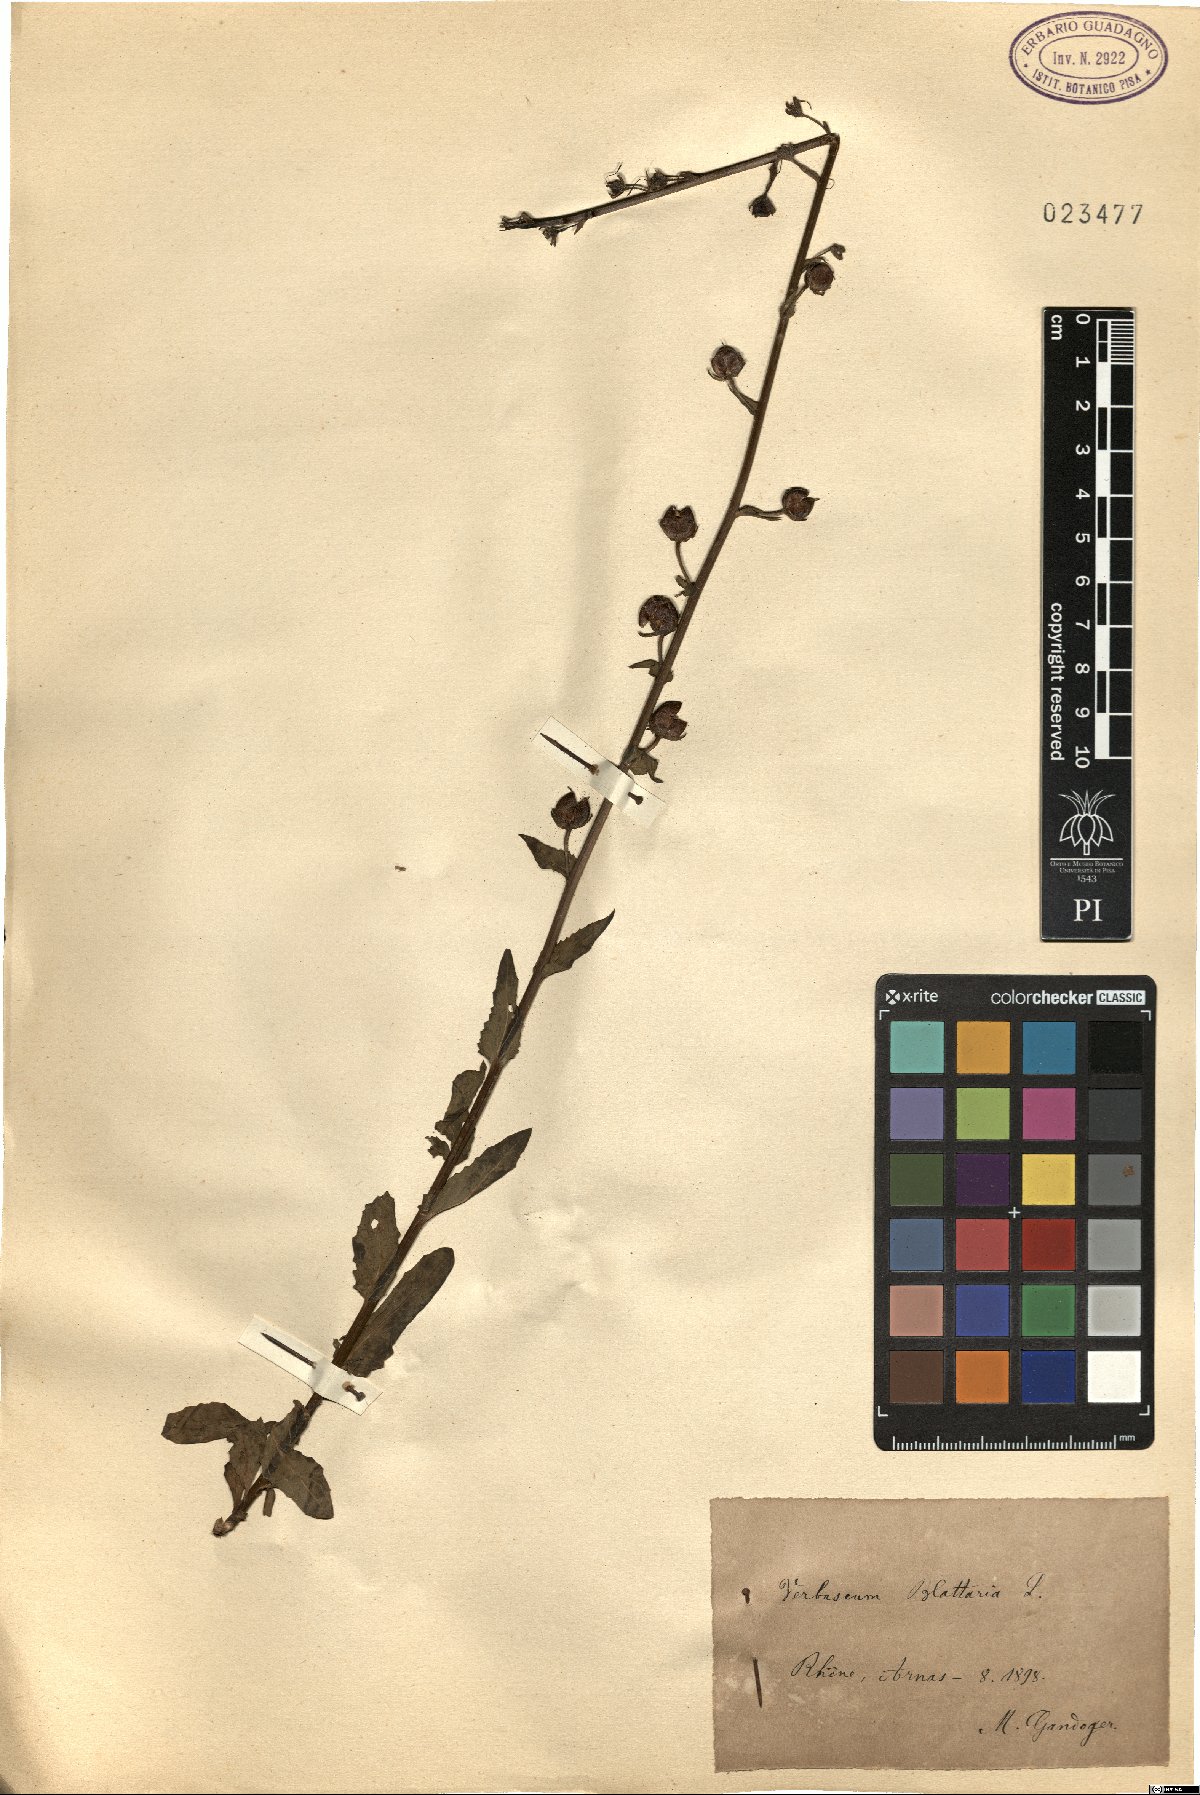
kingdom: Plantae
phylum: Tracheophyta
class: Magnoliopsida
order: Lamiales
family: Scrophulariaceae
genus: Verbascum
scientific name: Verbascum blattaria
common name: Moth mullein
